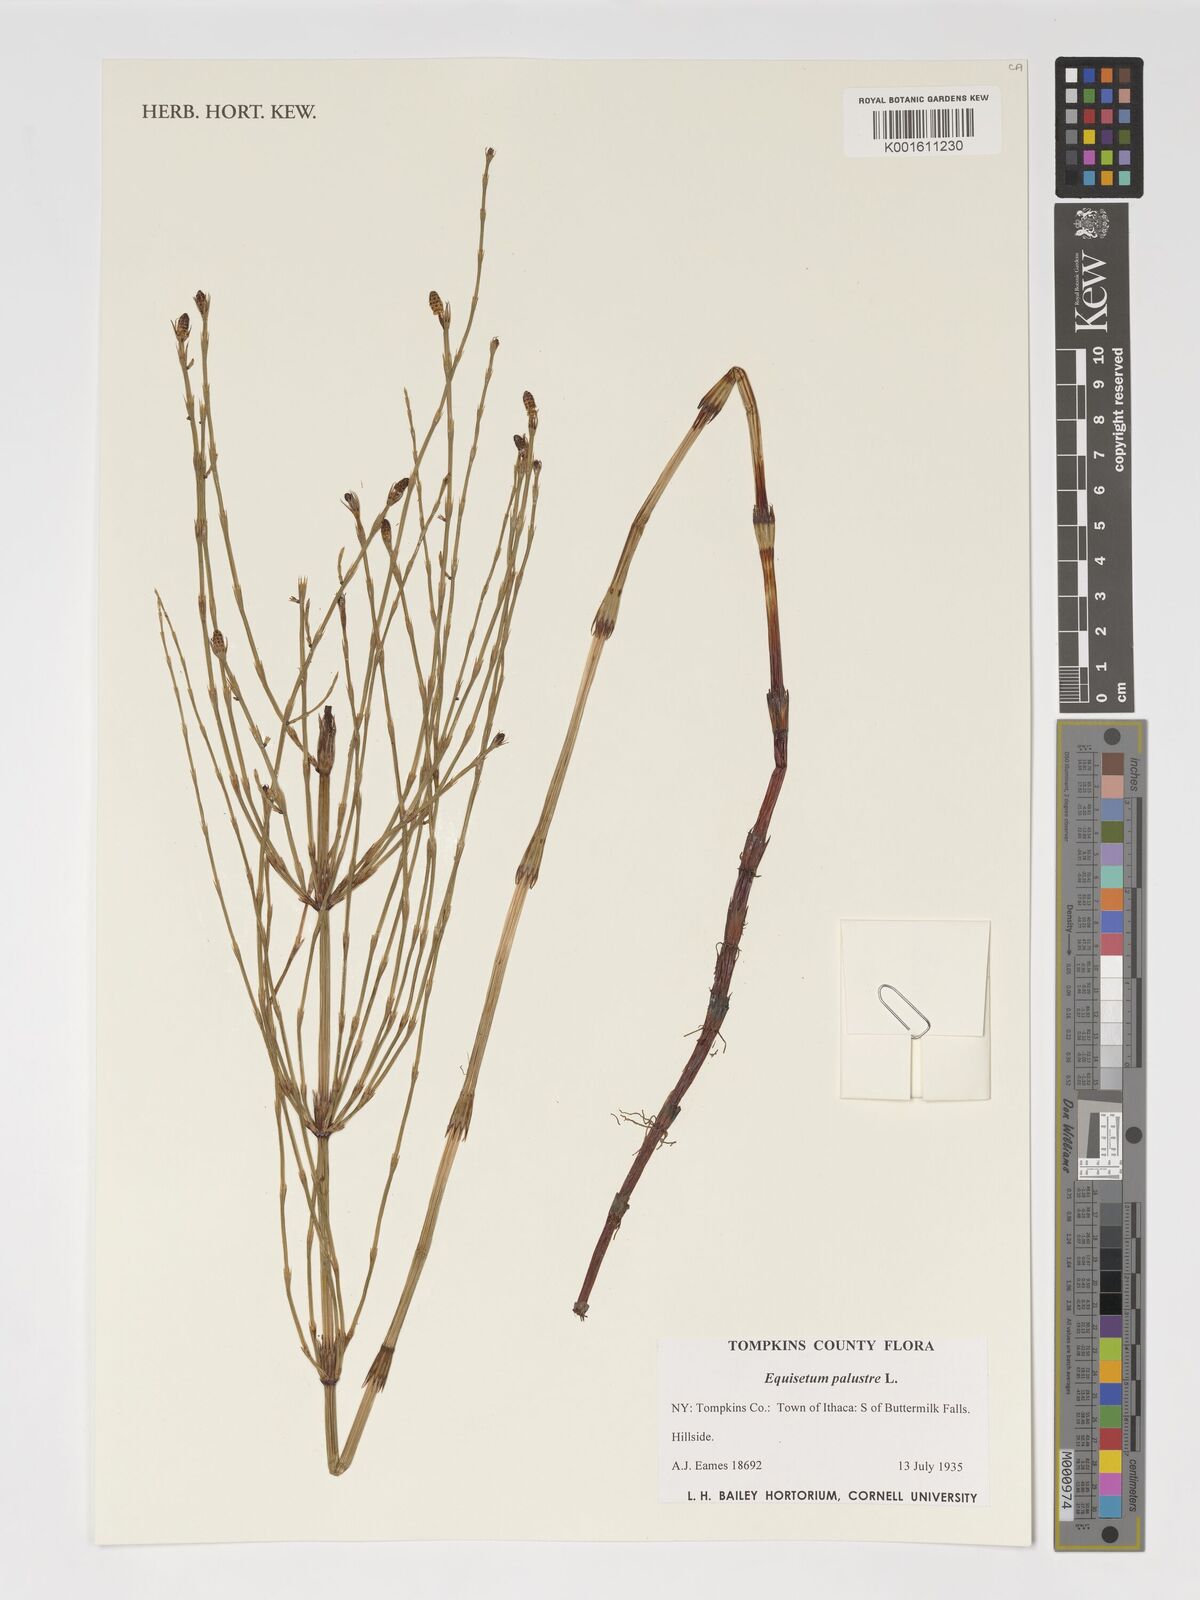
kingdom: Plantae
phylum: Tracheophyta
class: Polypodiopsida
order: Equisetales
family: Equisetaceae
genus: Equisetum
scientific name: Equisetum palustre
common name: Marsh horsetail
